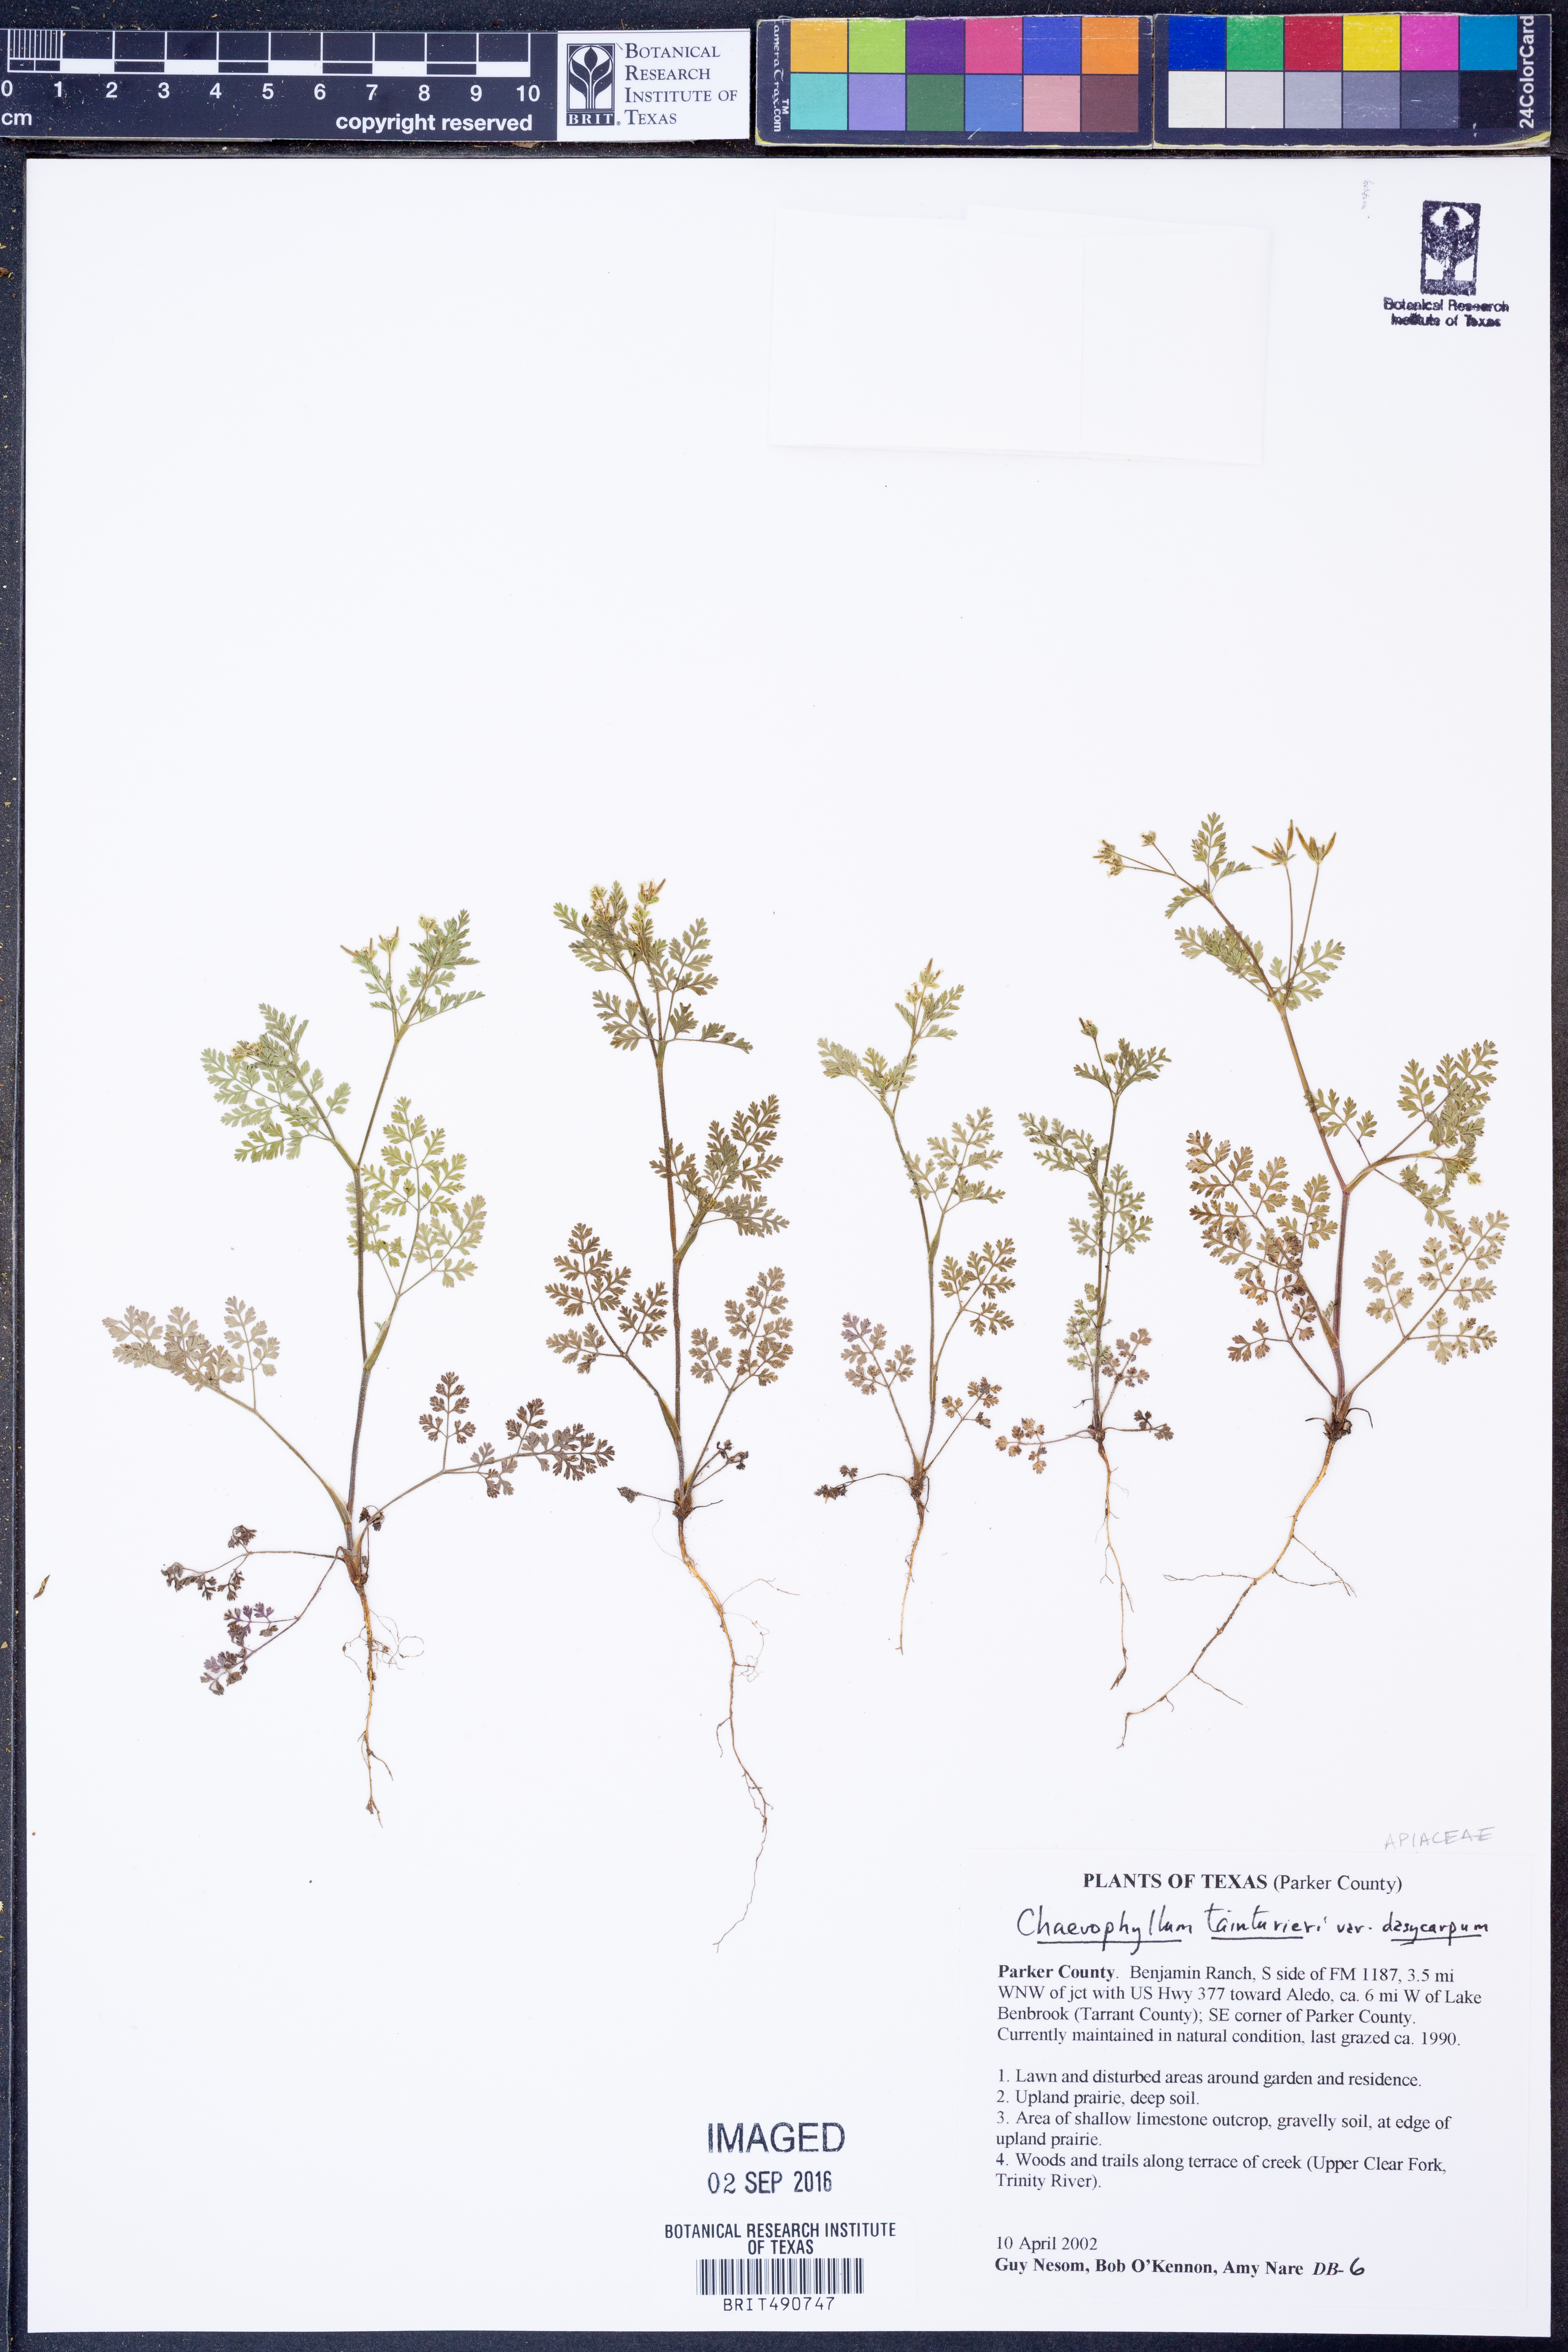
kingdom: Plantae
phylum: Tracheophyta
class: Magnoliopsida
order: Apiales
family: Apiaceae
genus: Chaerophyllum
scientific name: Chaerophyllum dasycarpum
